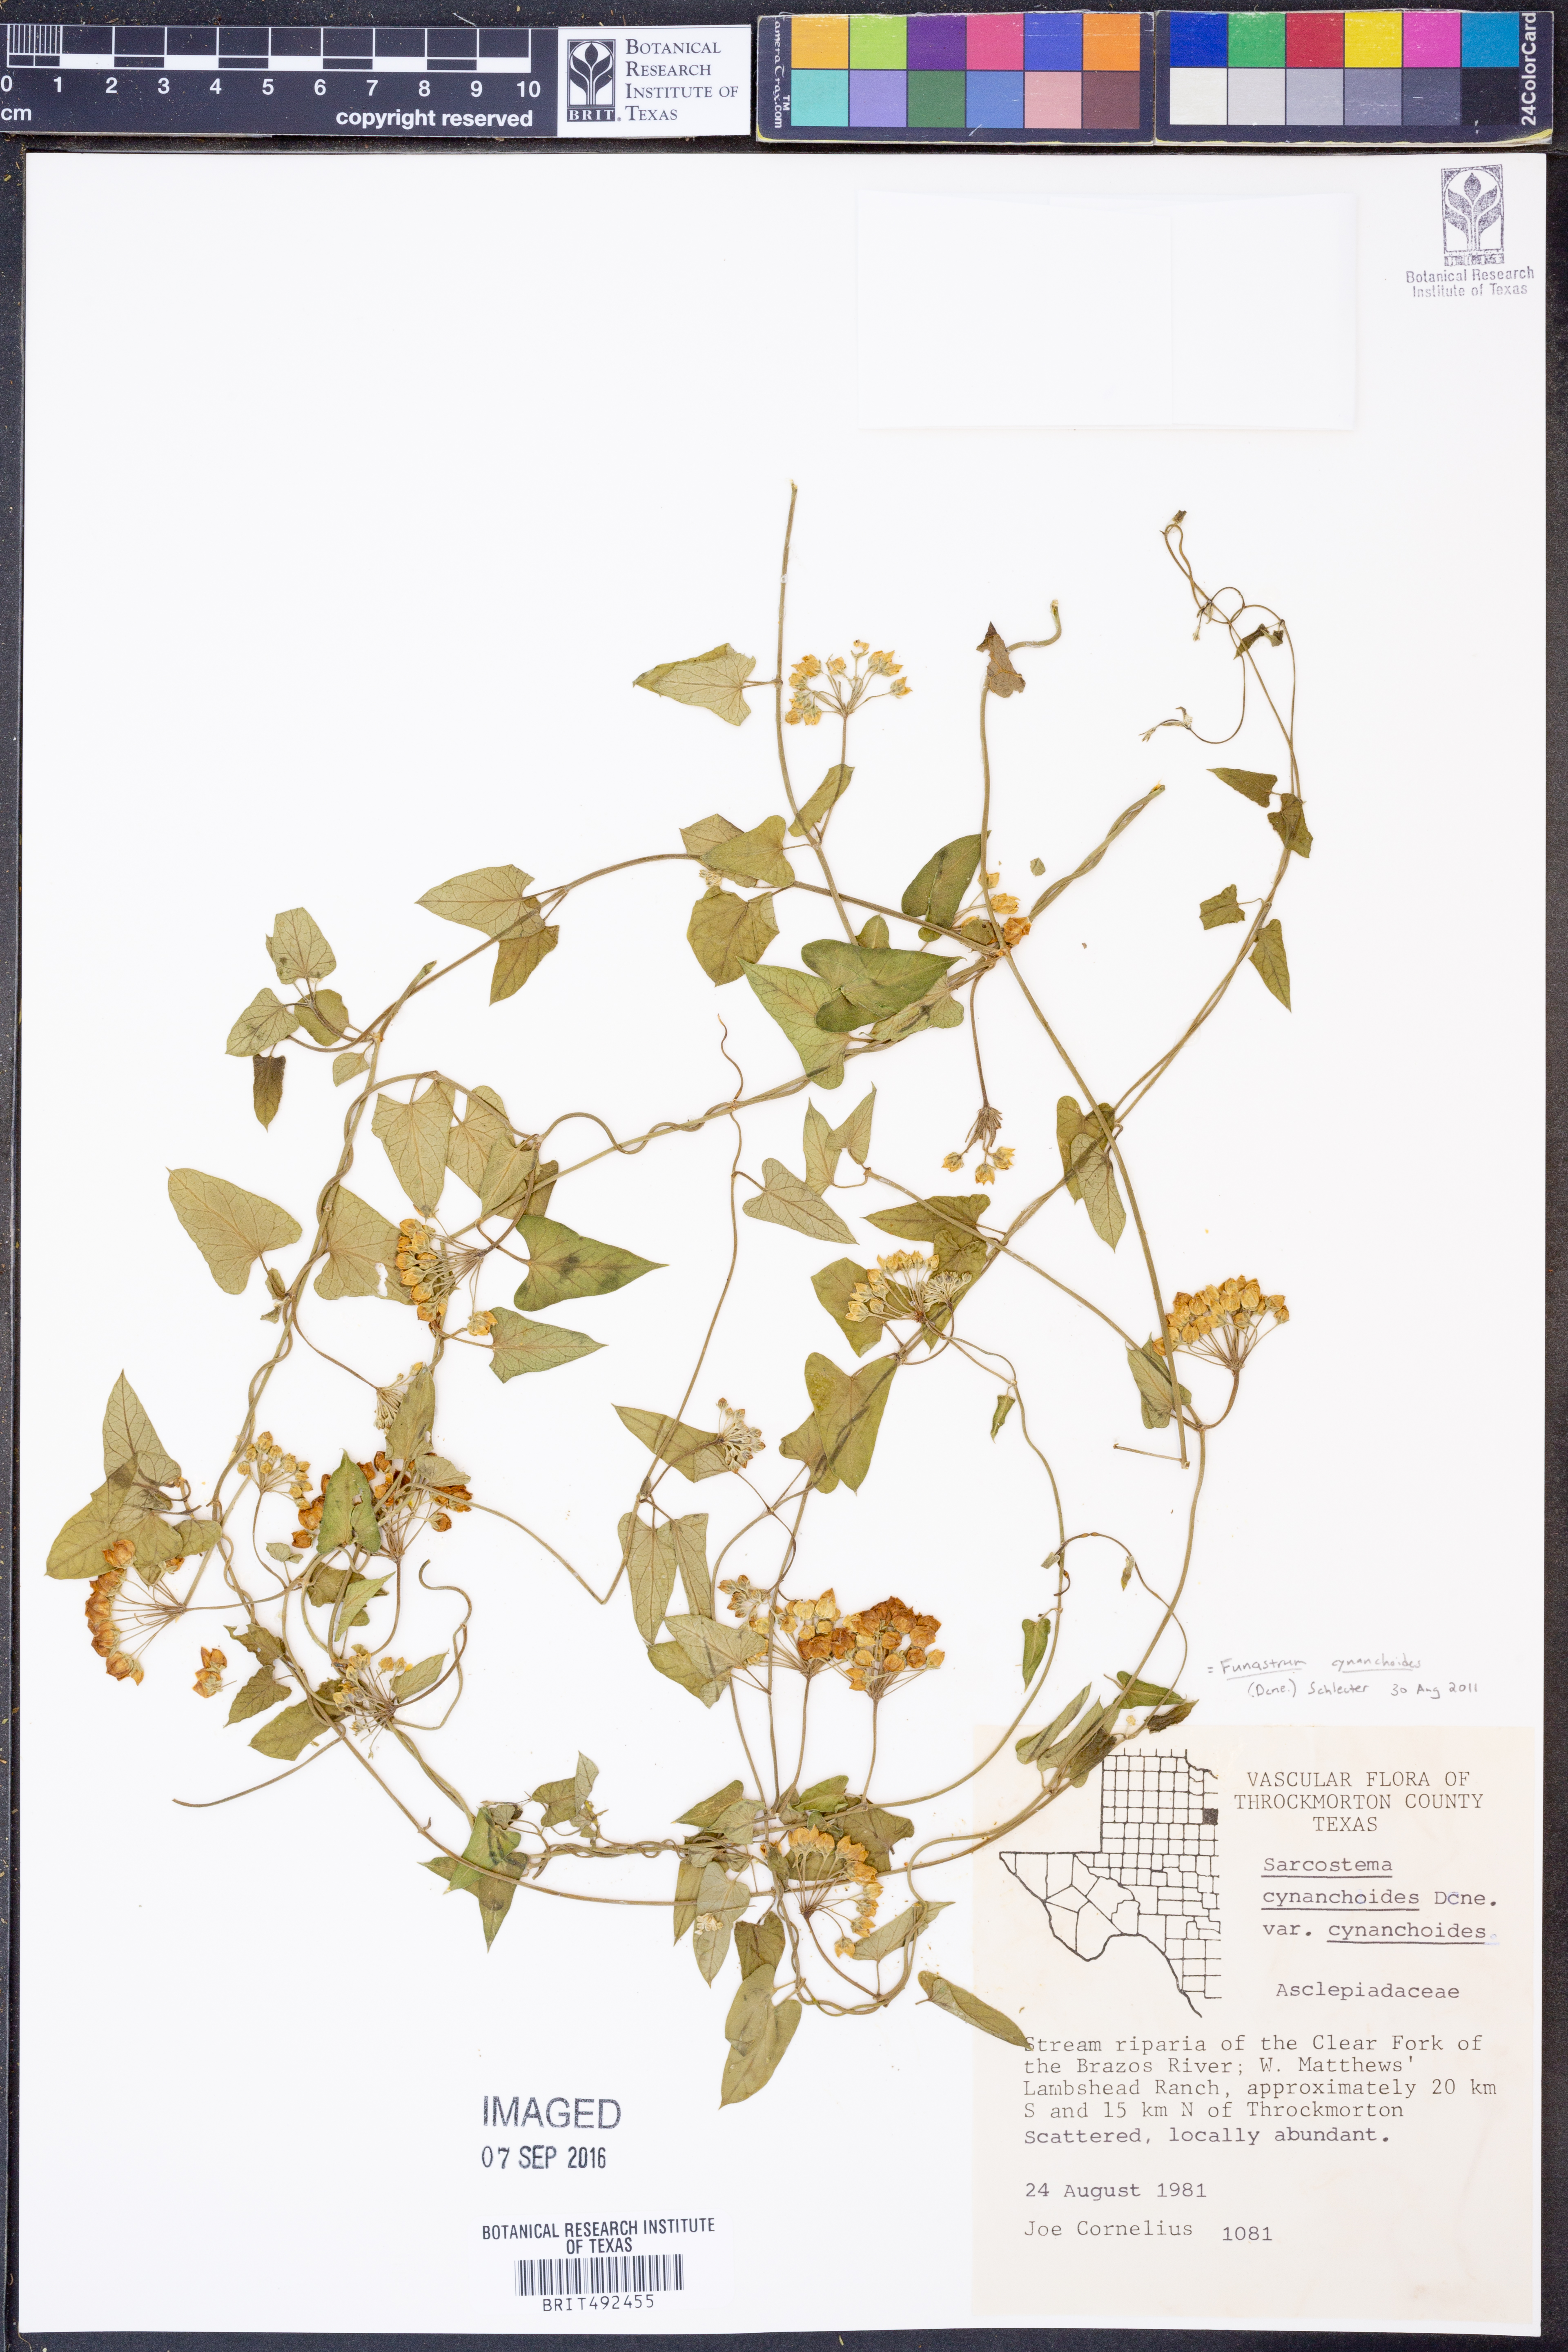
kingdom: Plantae
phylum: Tracheophyta
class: Magnoliopsida
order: Gentianales
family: Apocynaceae
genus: Funastrum
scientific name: Funastrum cynanchoides
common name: Climbing-milkweed
